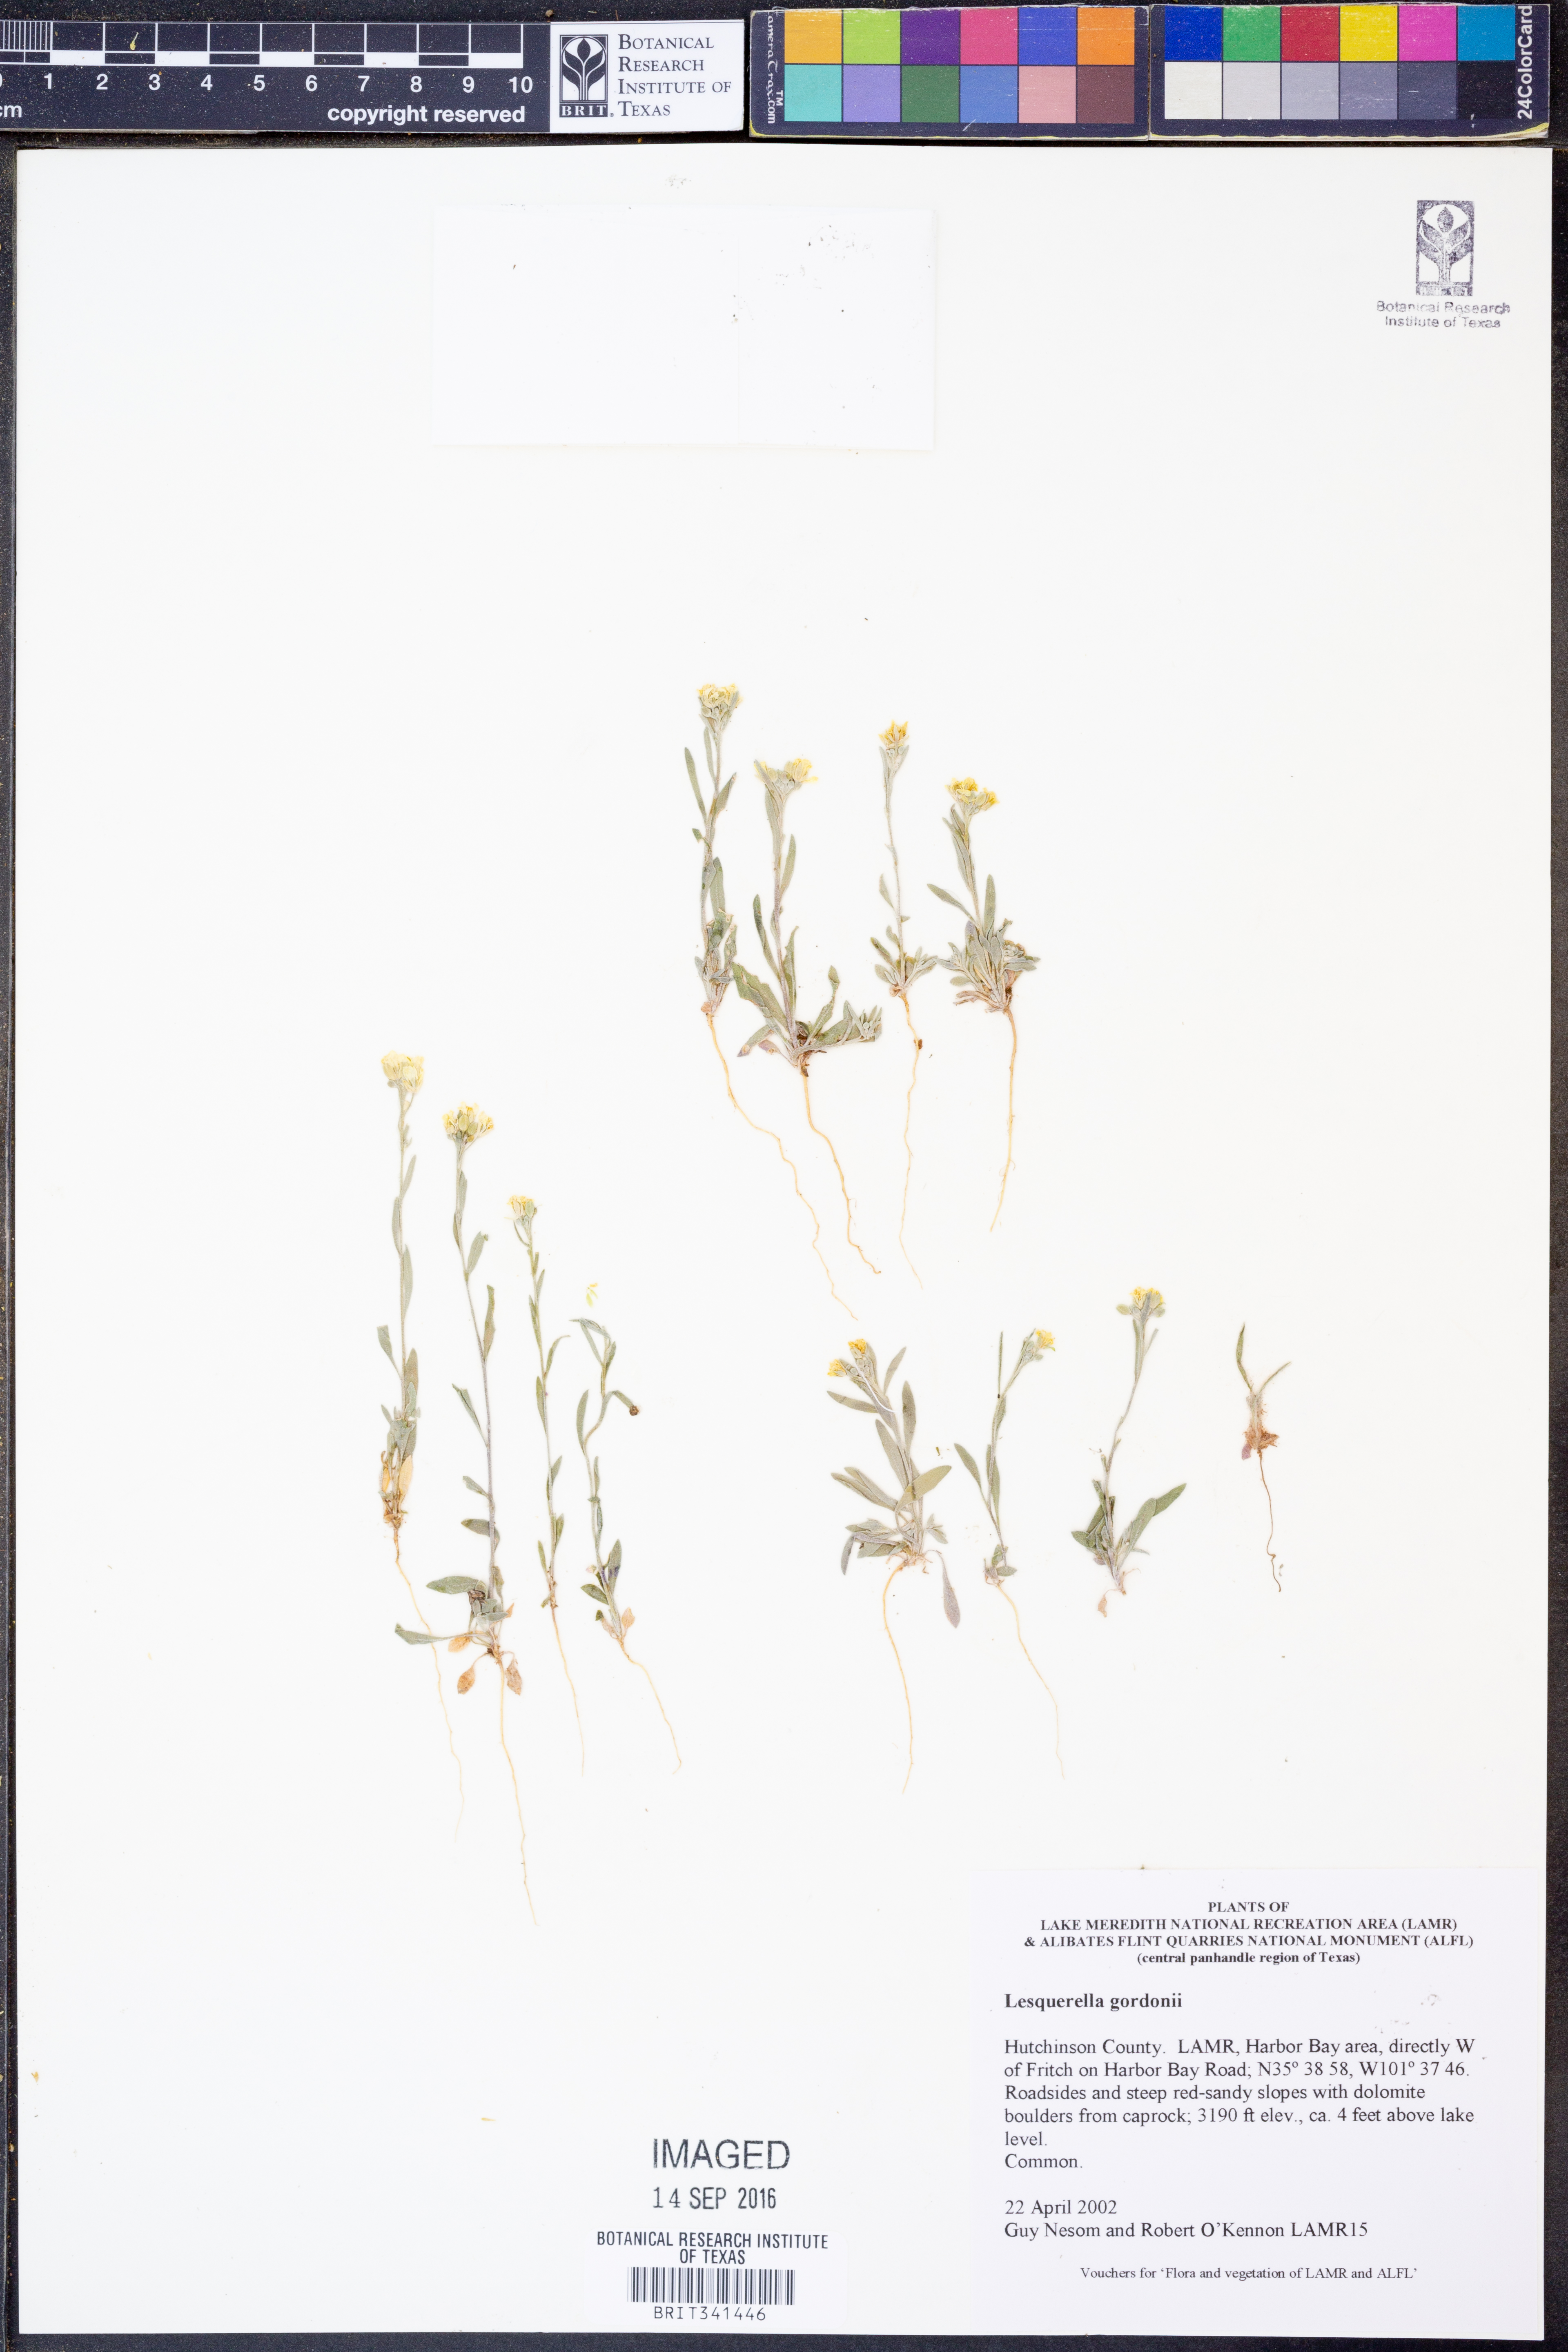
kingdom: Plantae
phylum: Tracheophyta
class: Magnoliopsida
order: Brassicales
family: Brassicaceae
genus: Physaria
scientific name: Physaria gordonii
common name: Gordon's bladderpod
